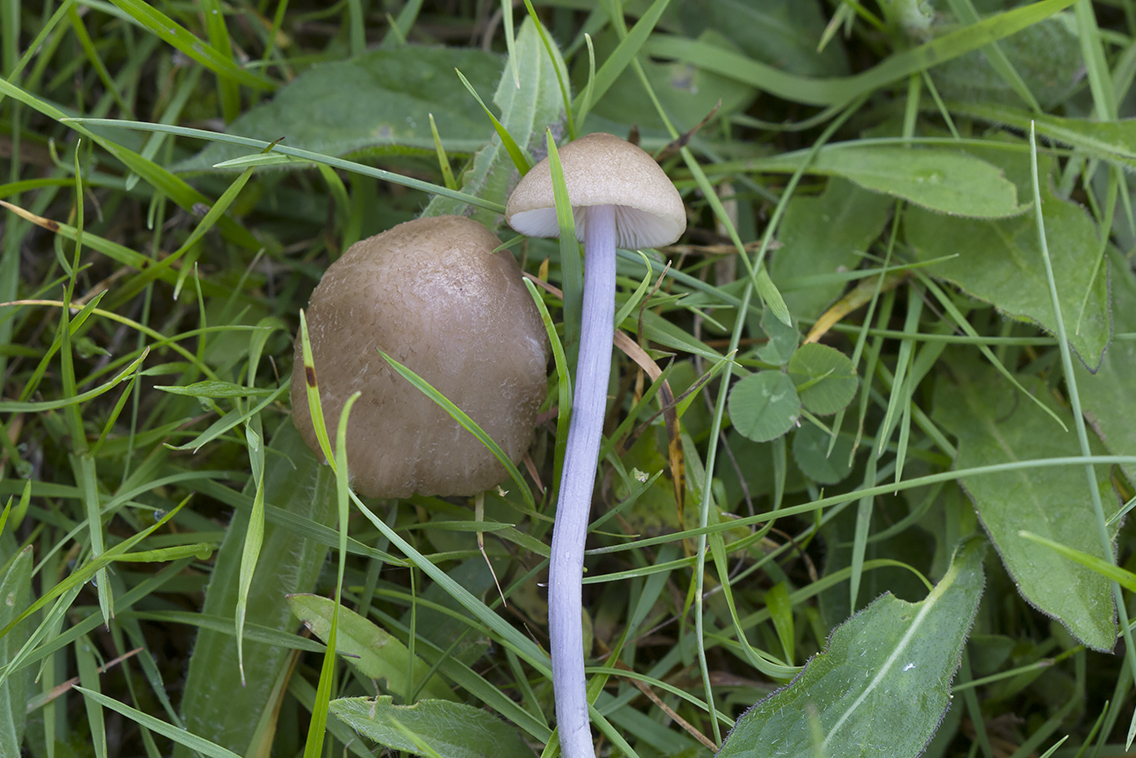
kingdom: Fungi
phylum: Basidiomycota
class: Agaricomycetes
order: Agaricales
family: Entolomataceae
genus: Entoloma
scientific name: Entoloma griseocyaneum
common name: gråblå rødblad
